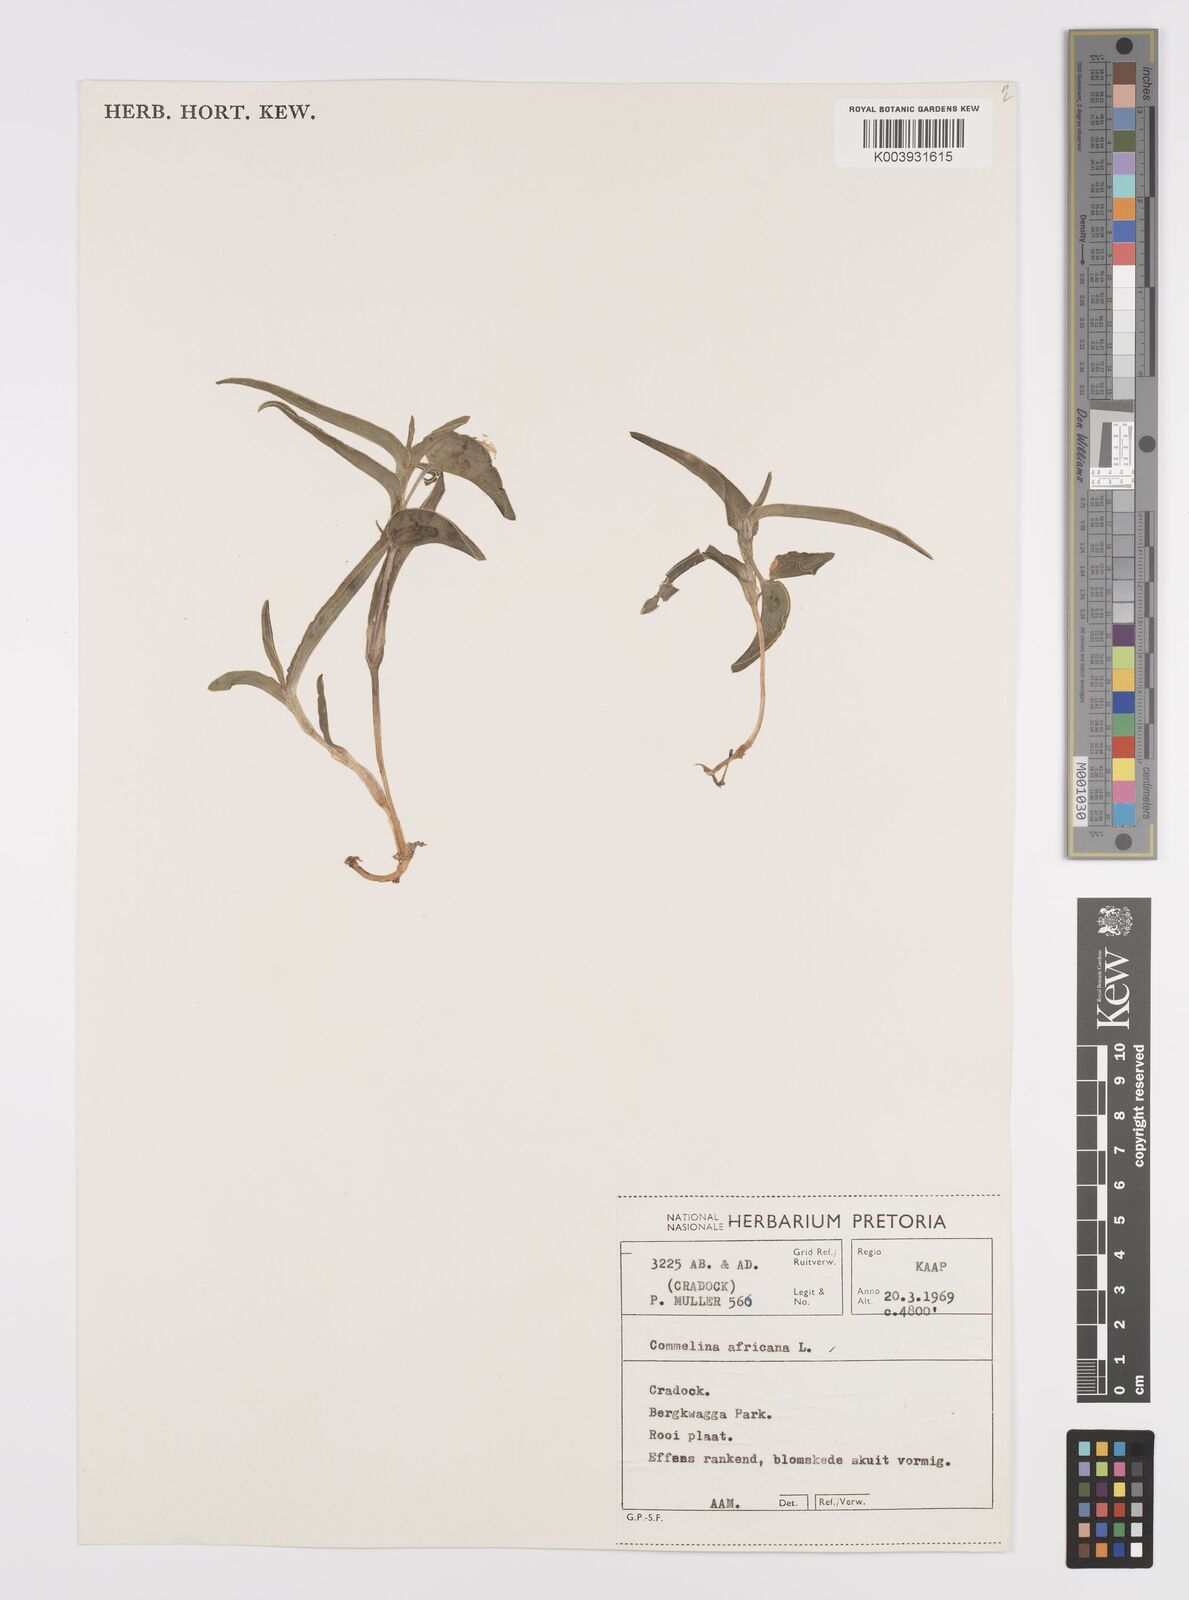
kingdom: Plantae
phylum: Tracheophyta
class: Liliopsida
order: Commelinales
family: Commelinaceae
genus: Commelina
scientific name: Commelina africana
